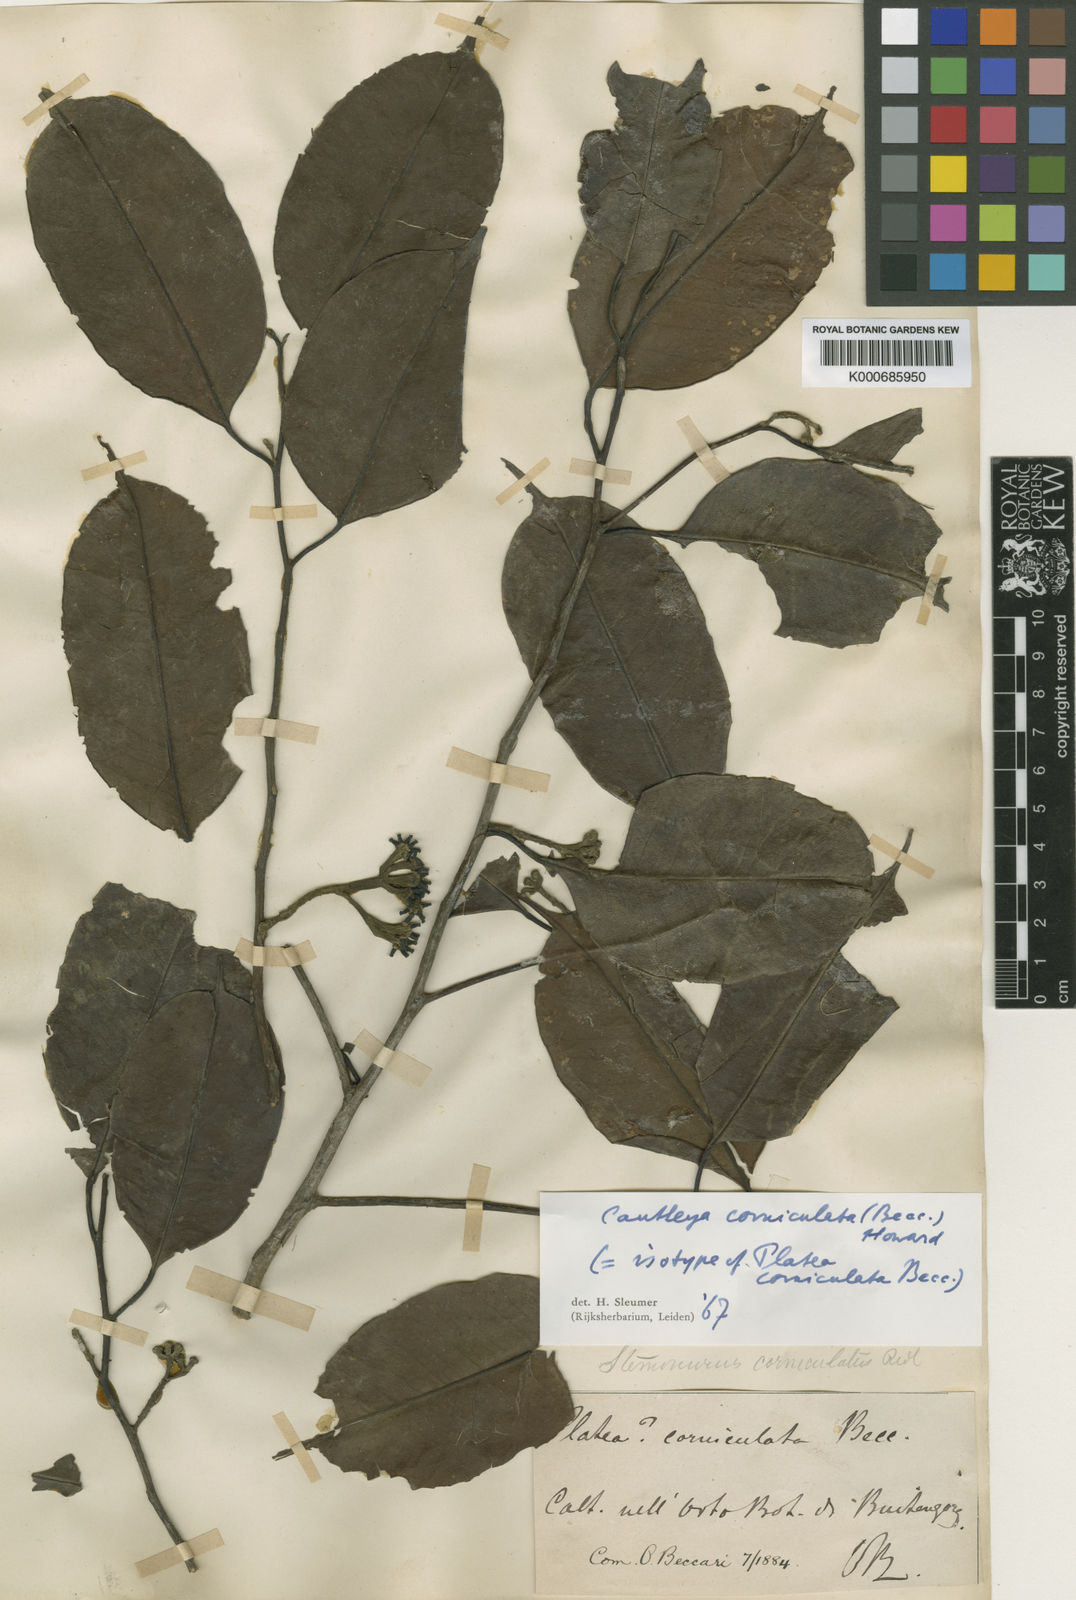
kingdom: Plantae
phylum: Tracheophyta
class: Magnoliopsida
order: Cardiopteridales
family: Stemonuraceae
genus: Cantleya
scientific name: Cantleya corniculata
